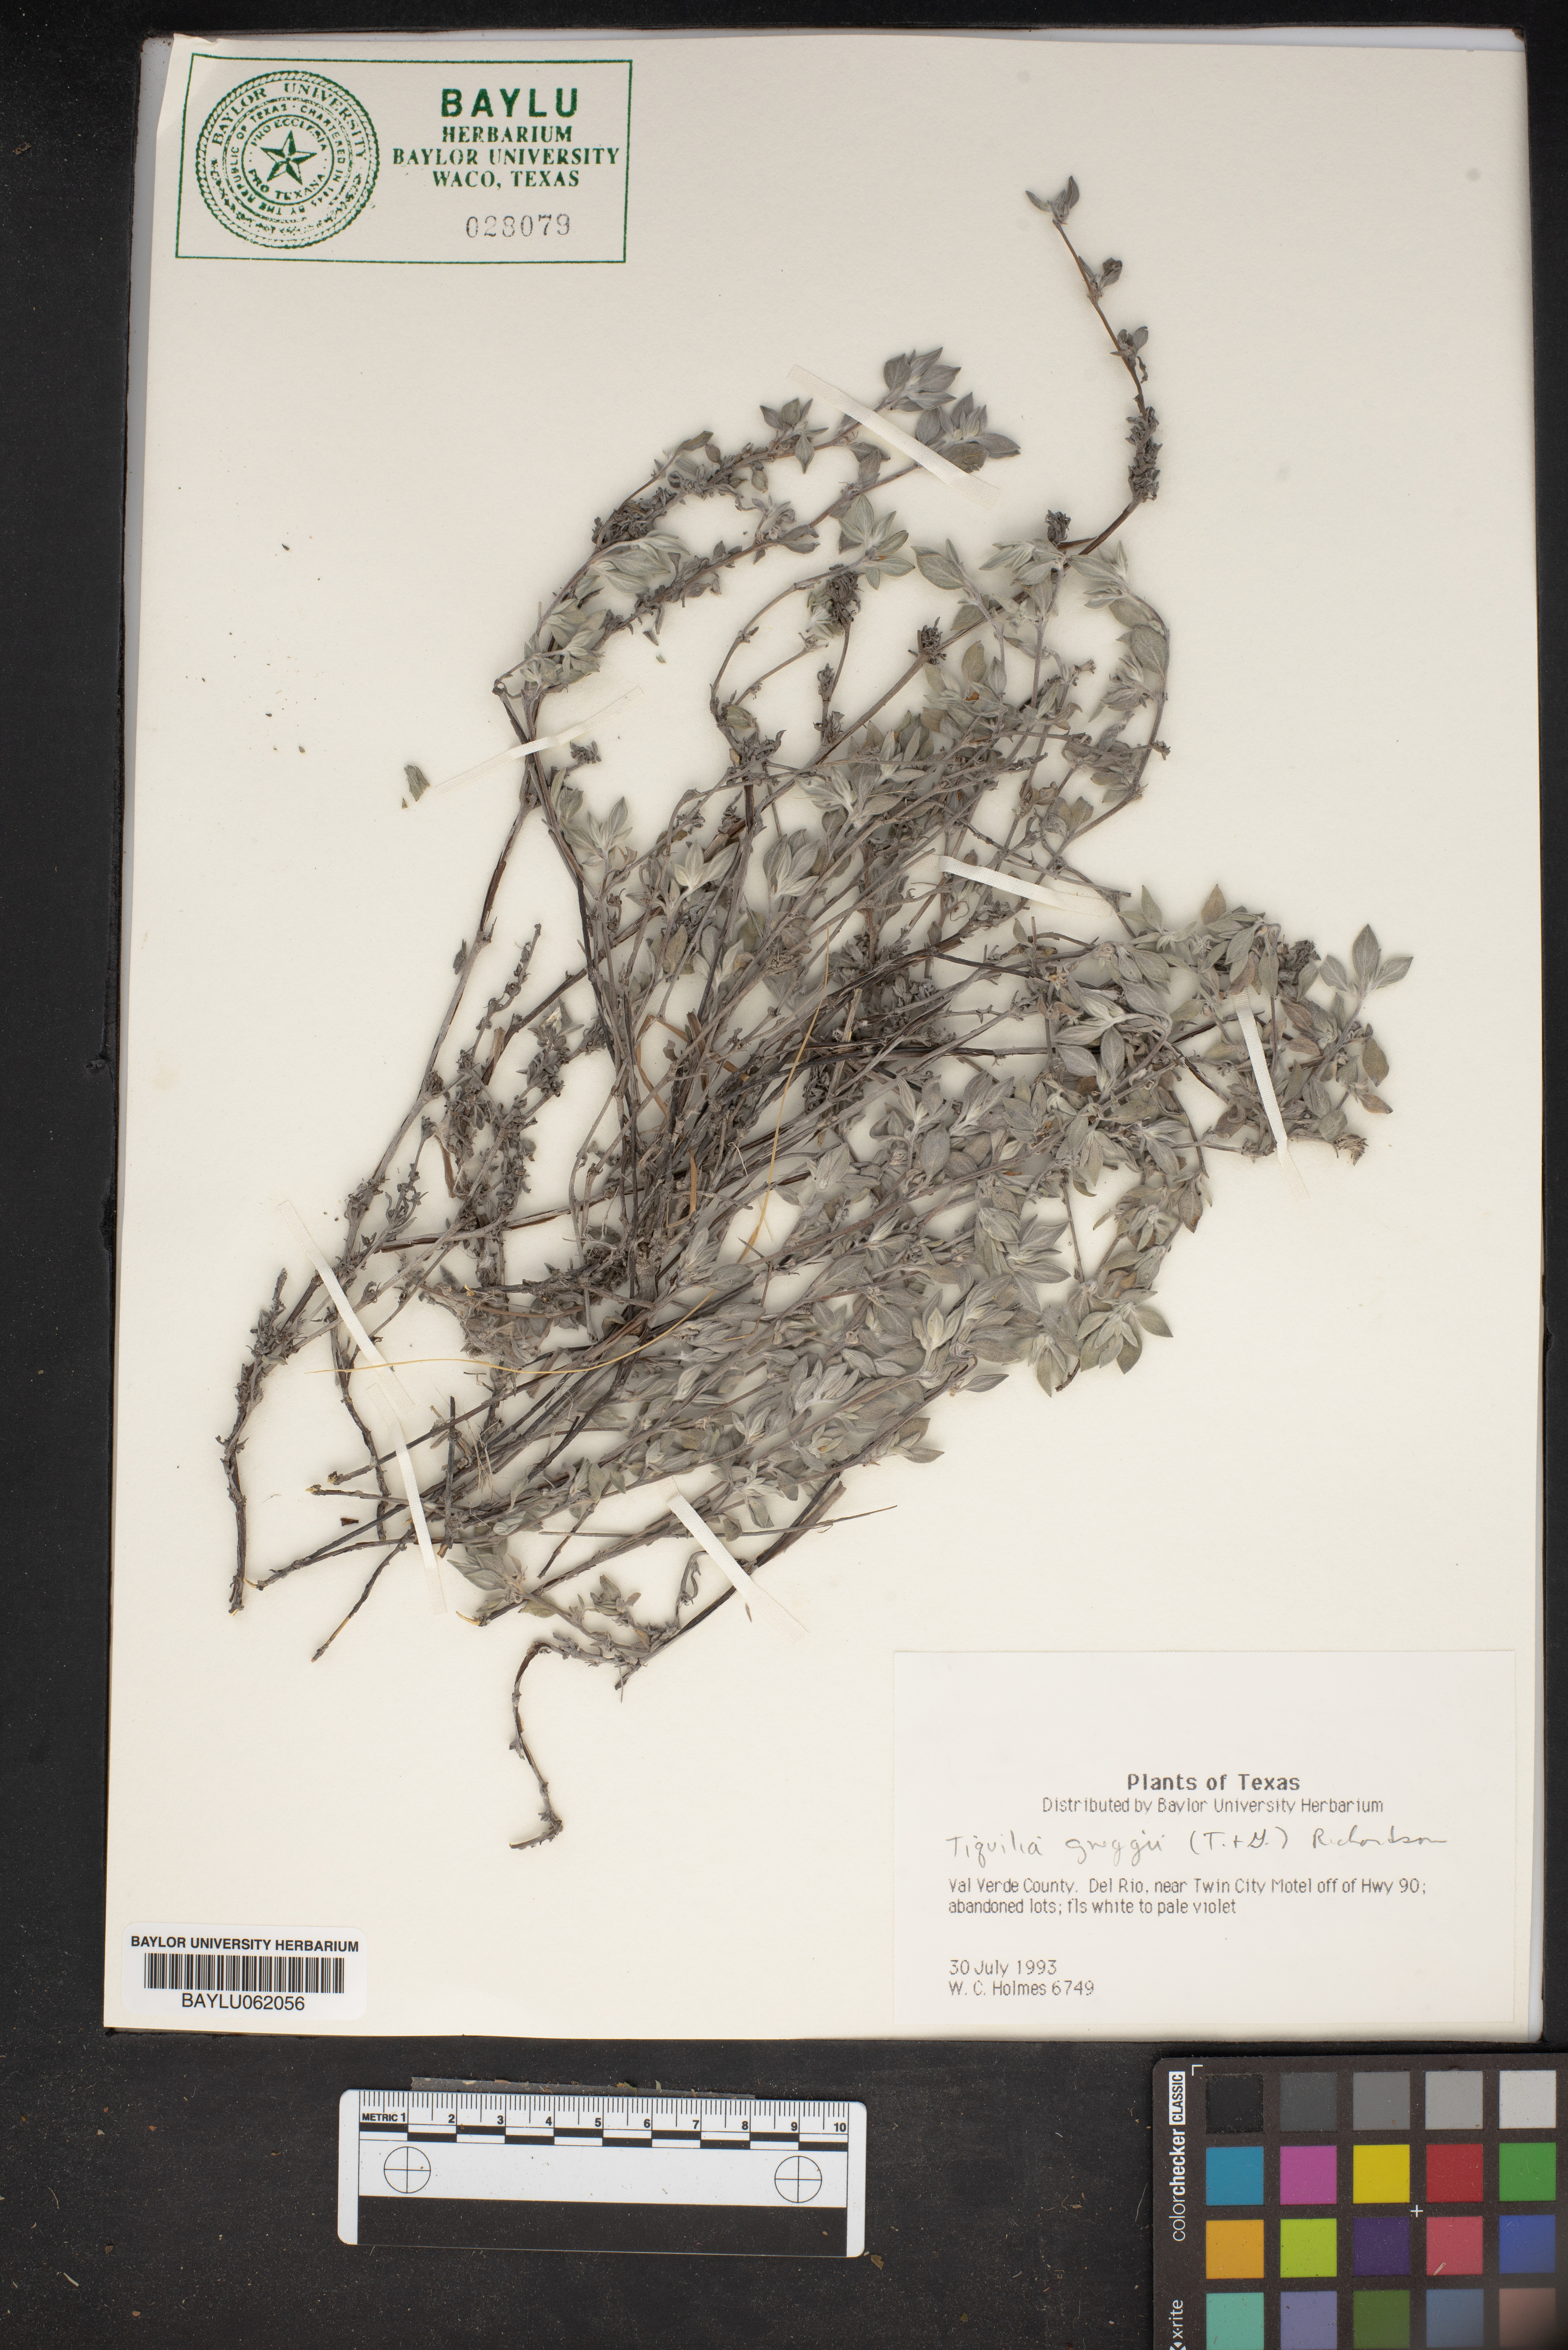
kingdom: Plantae
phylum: Tracheophyta
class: Magnoliopsida
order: Boraginales
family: Ehretiaceae
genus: Tiquilia
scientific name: Tiquilia greggii
